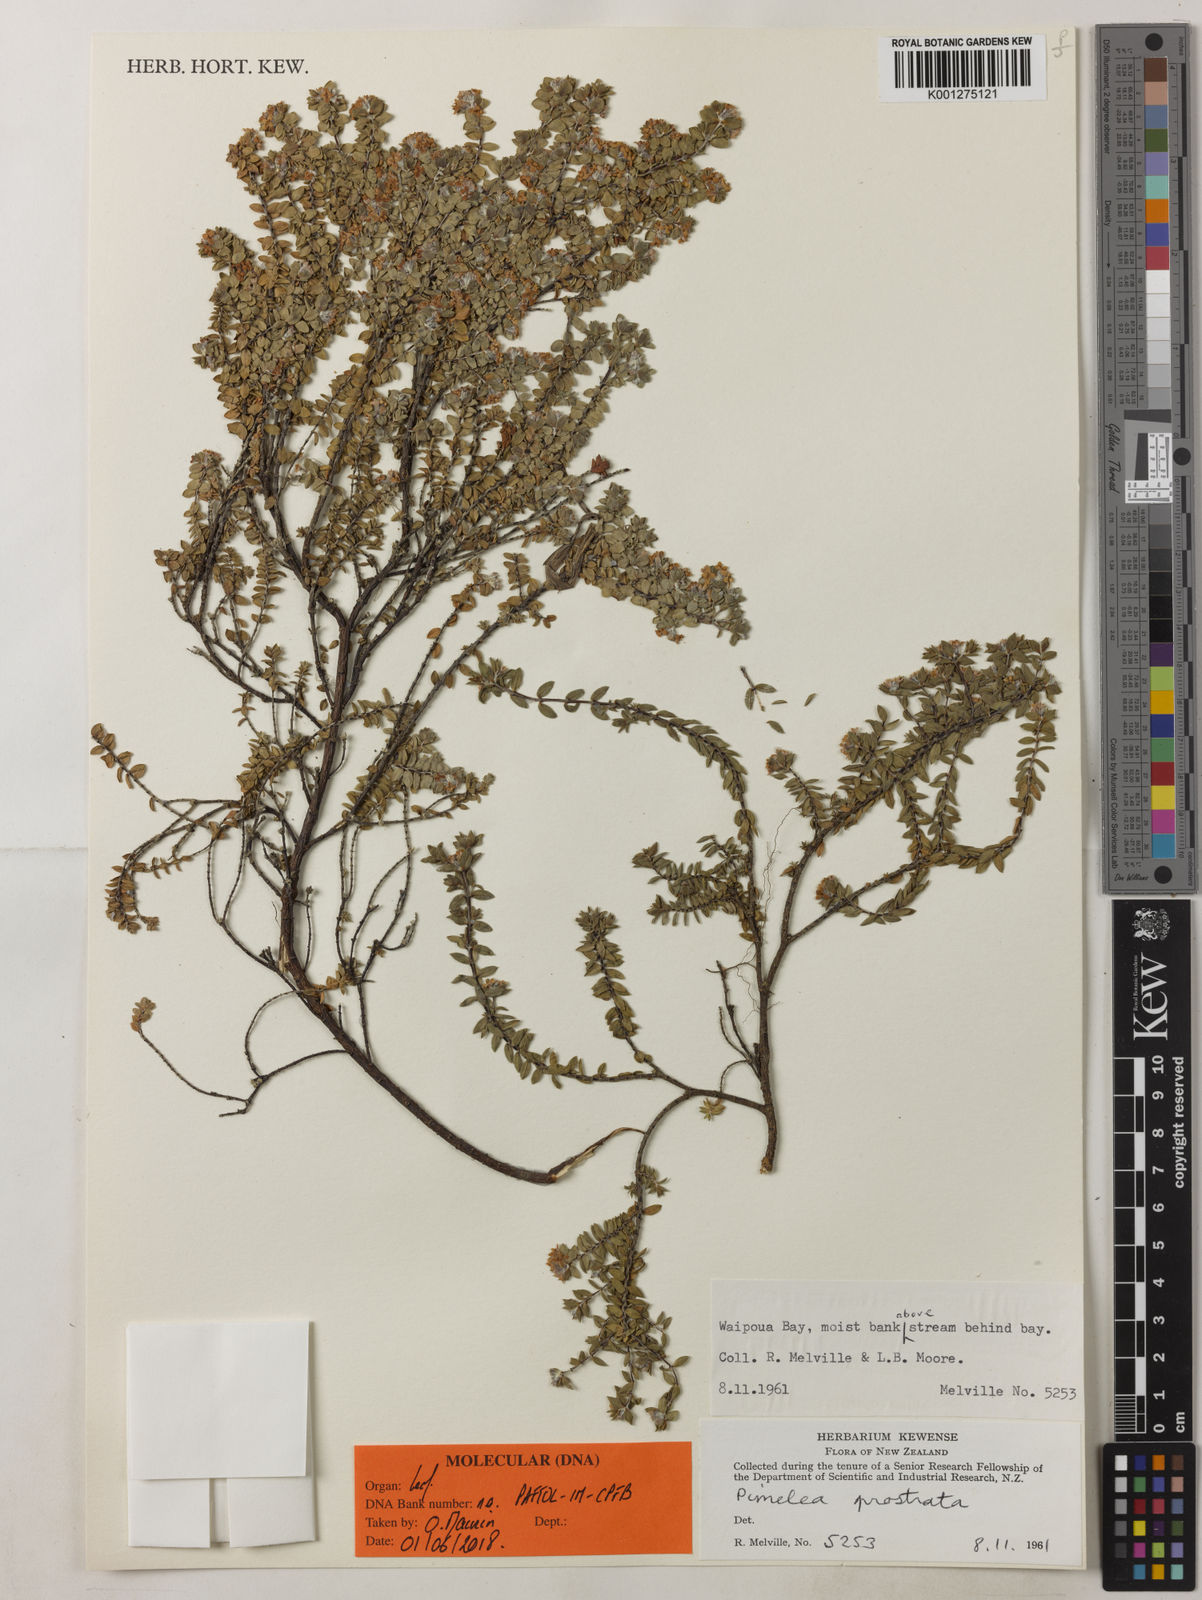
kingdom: Plantae
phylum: Tracheophyta
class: Magnoliopsida
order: Malvales
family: Thymelaeaceae
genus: Pimelea
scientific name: Pimelea
